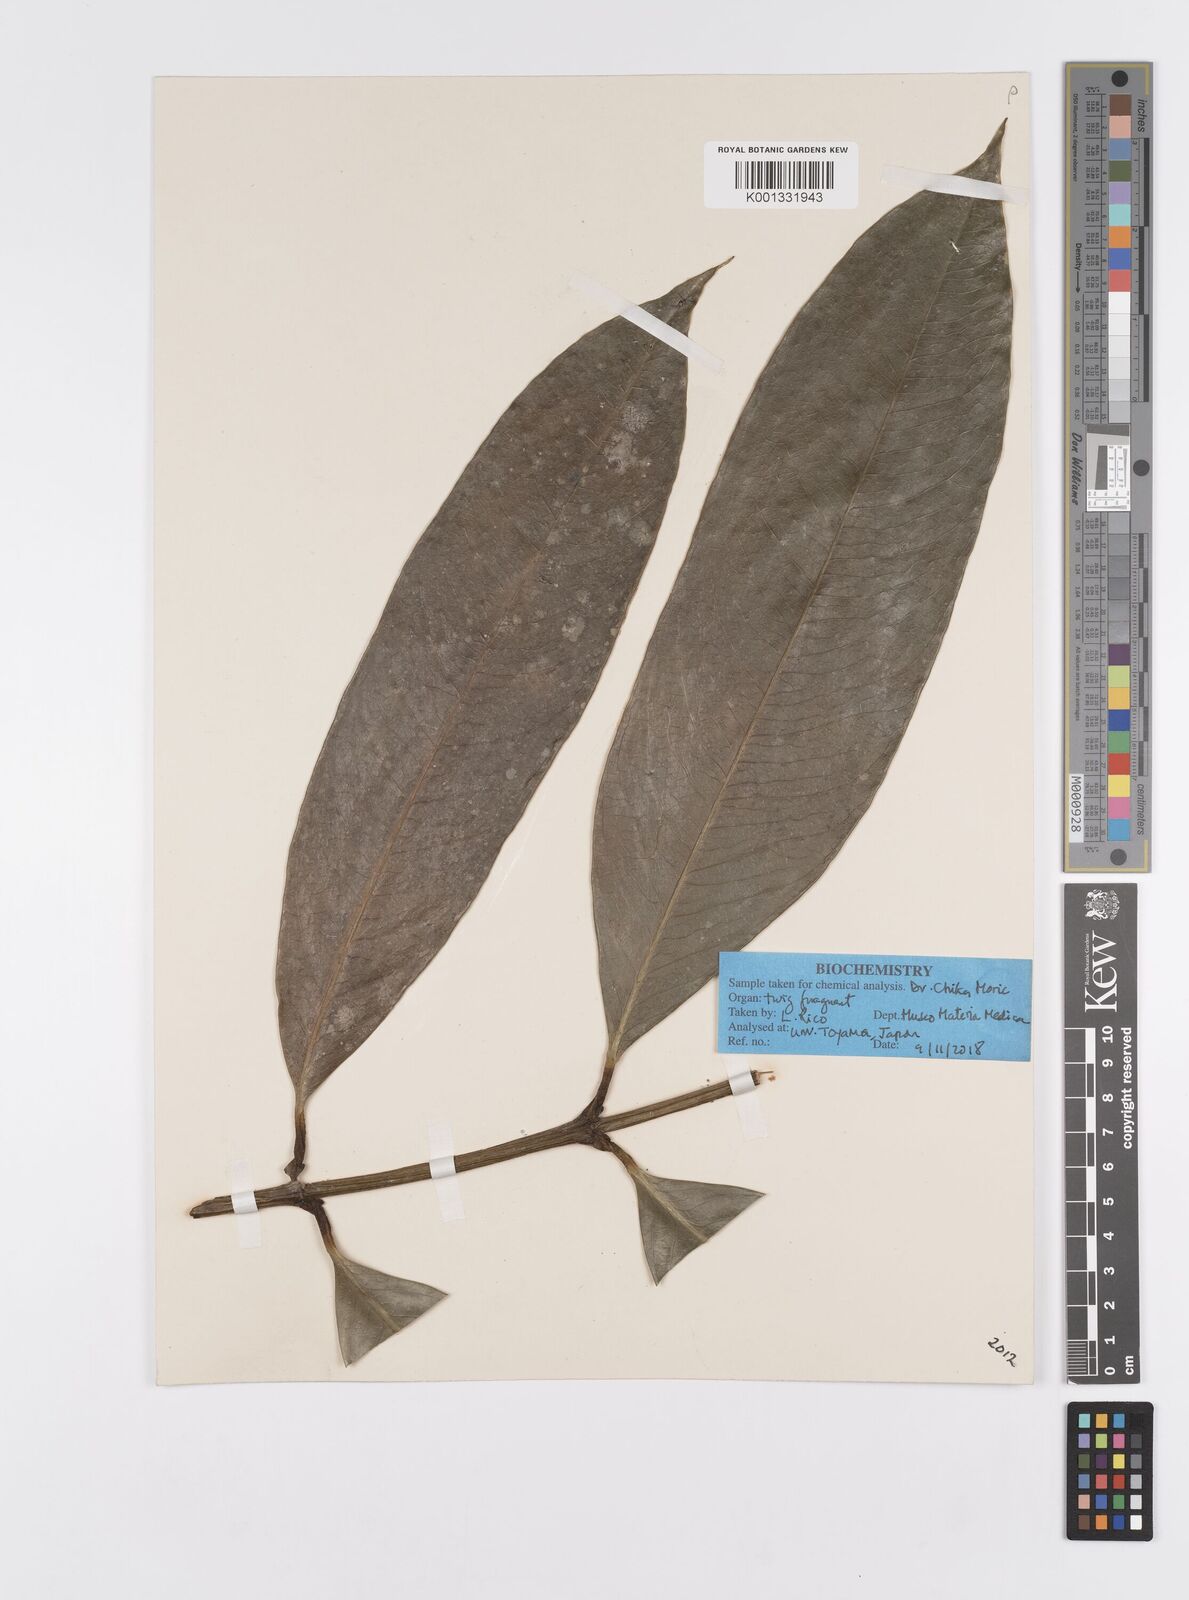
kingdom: Plantae
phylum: Tracheophyta
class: Magnoliopsida
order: Malpighiales
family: Clusiaceae
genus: Garcinia
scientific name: Garcinia
